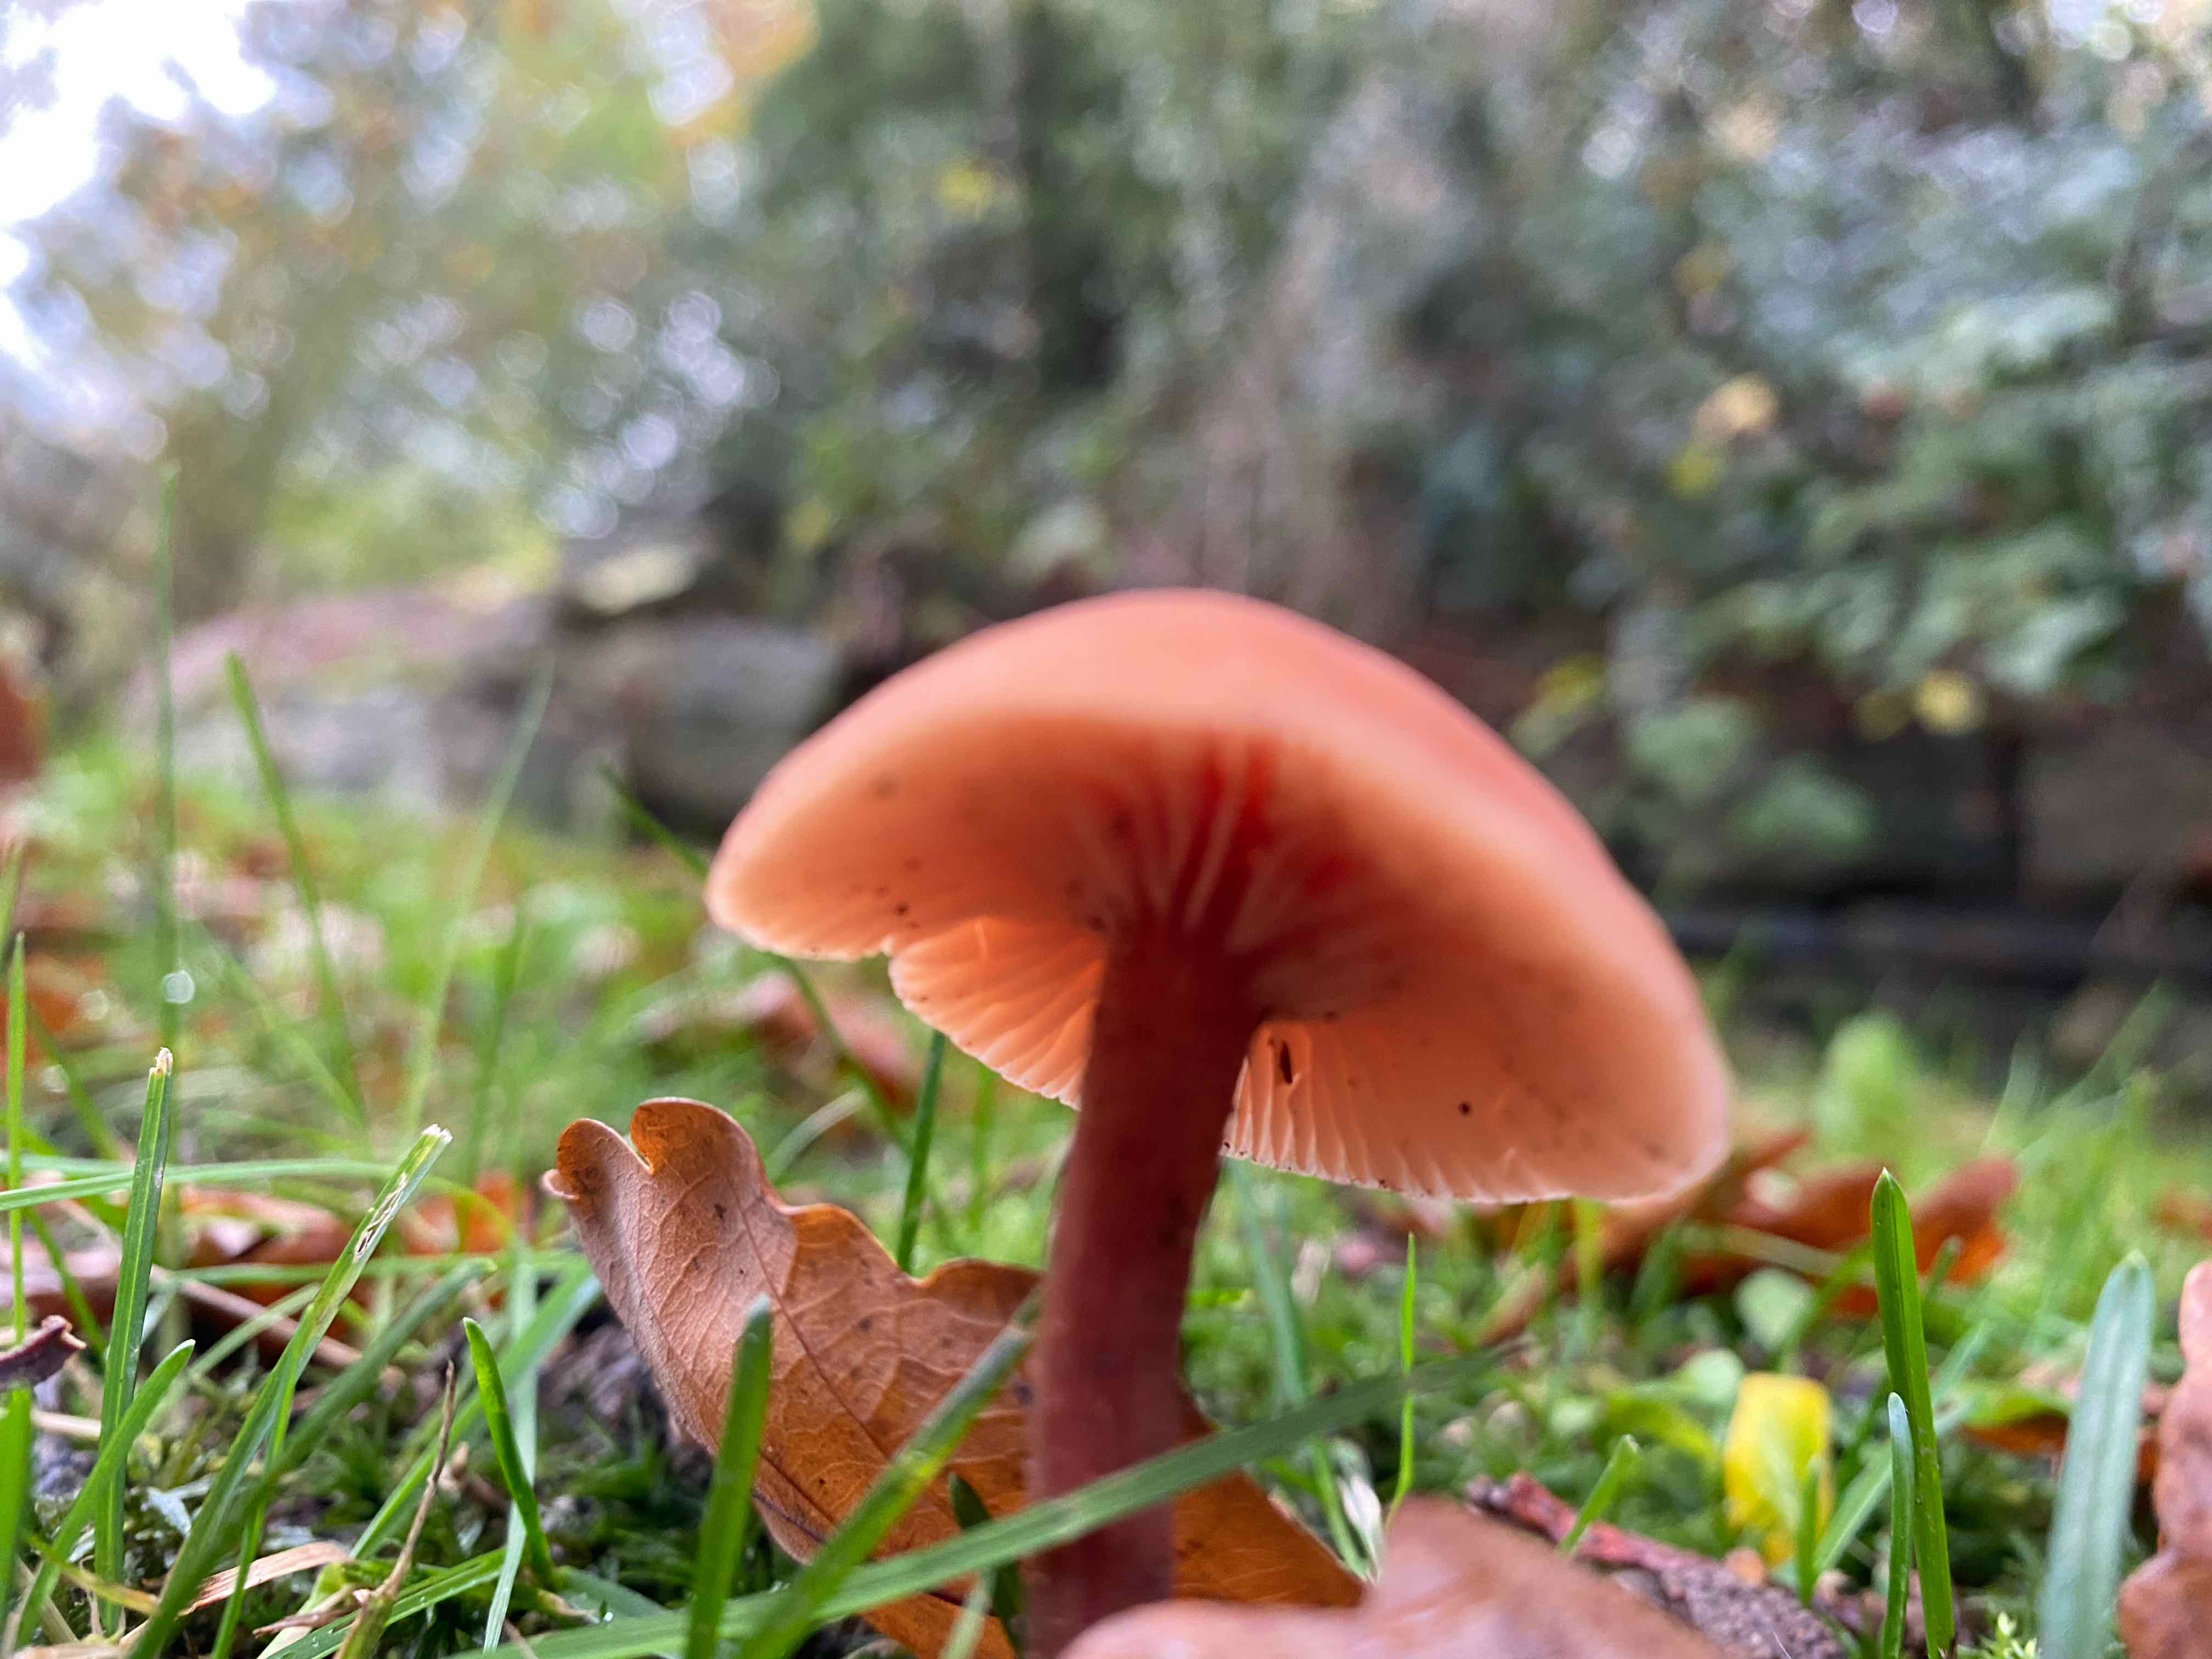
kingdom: Fungi
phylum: Basidiomycota
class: Agaricomycetes
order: Agaricales
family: Hydnangiaceae
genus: Laccaria
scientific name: Laccaria laccata
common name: rød ametysthat
